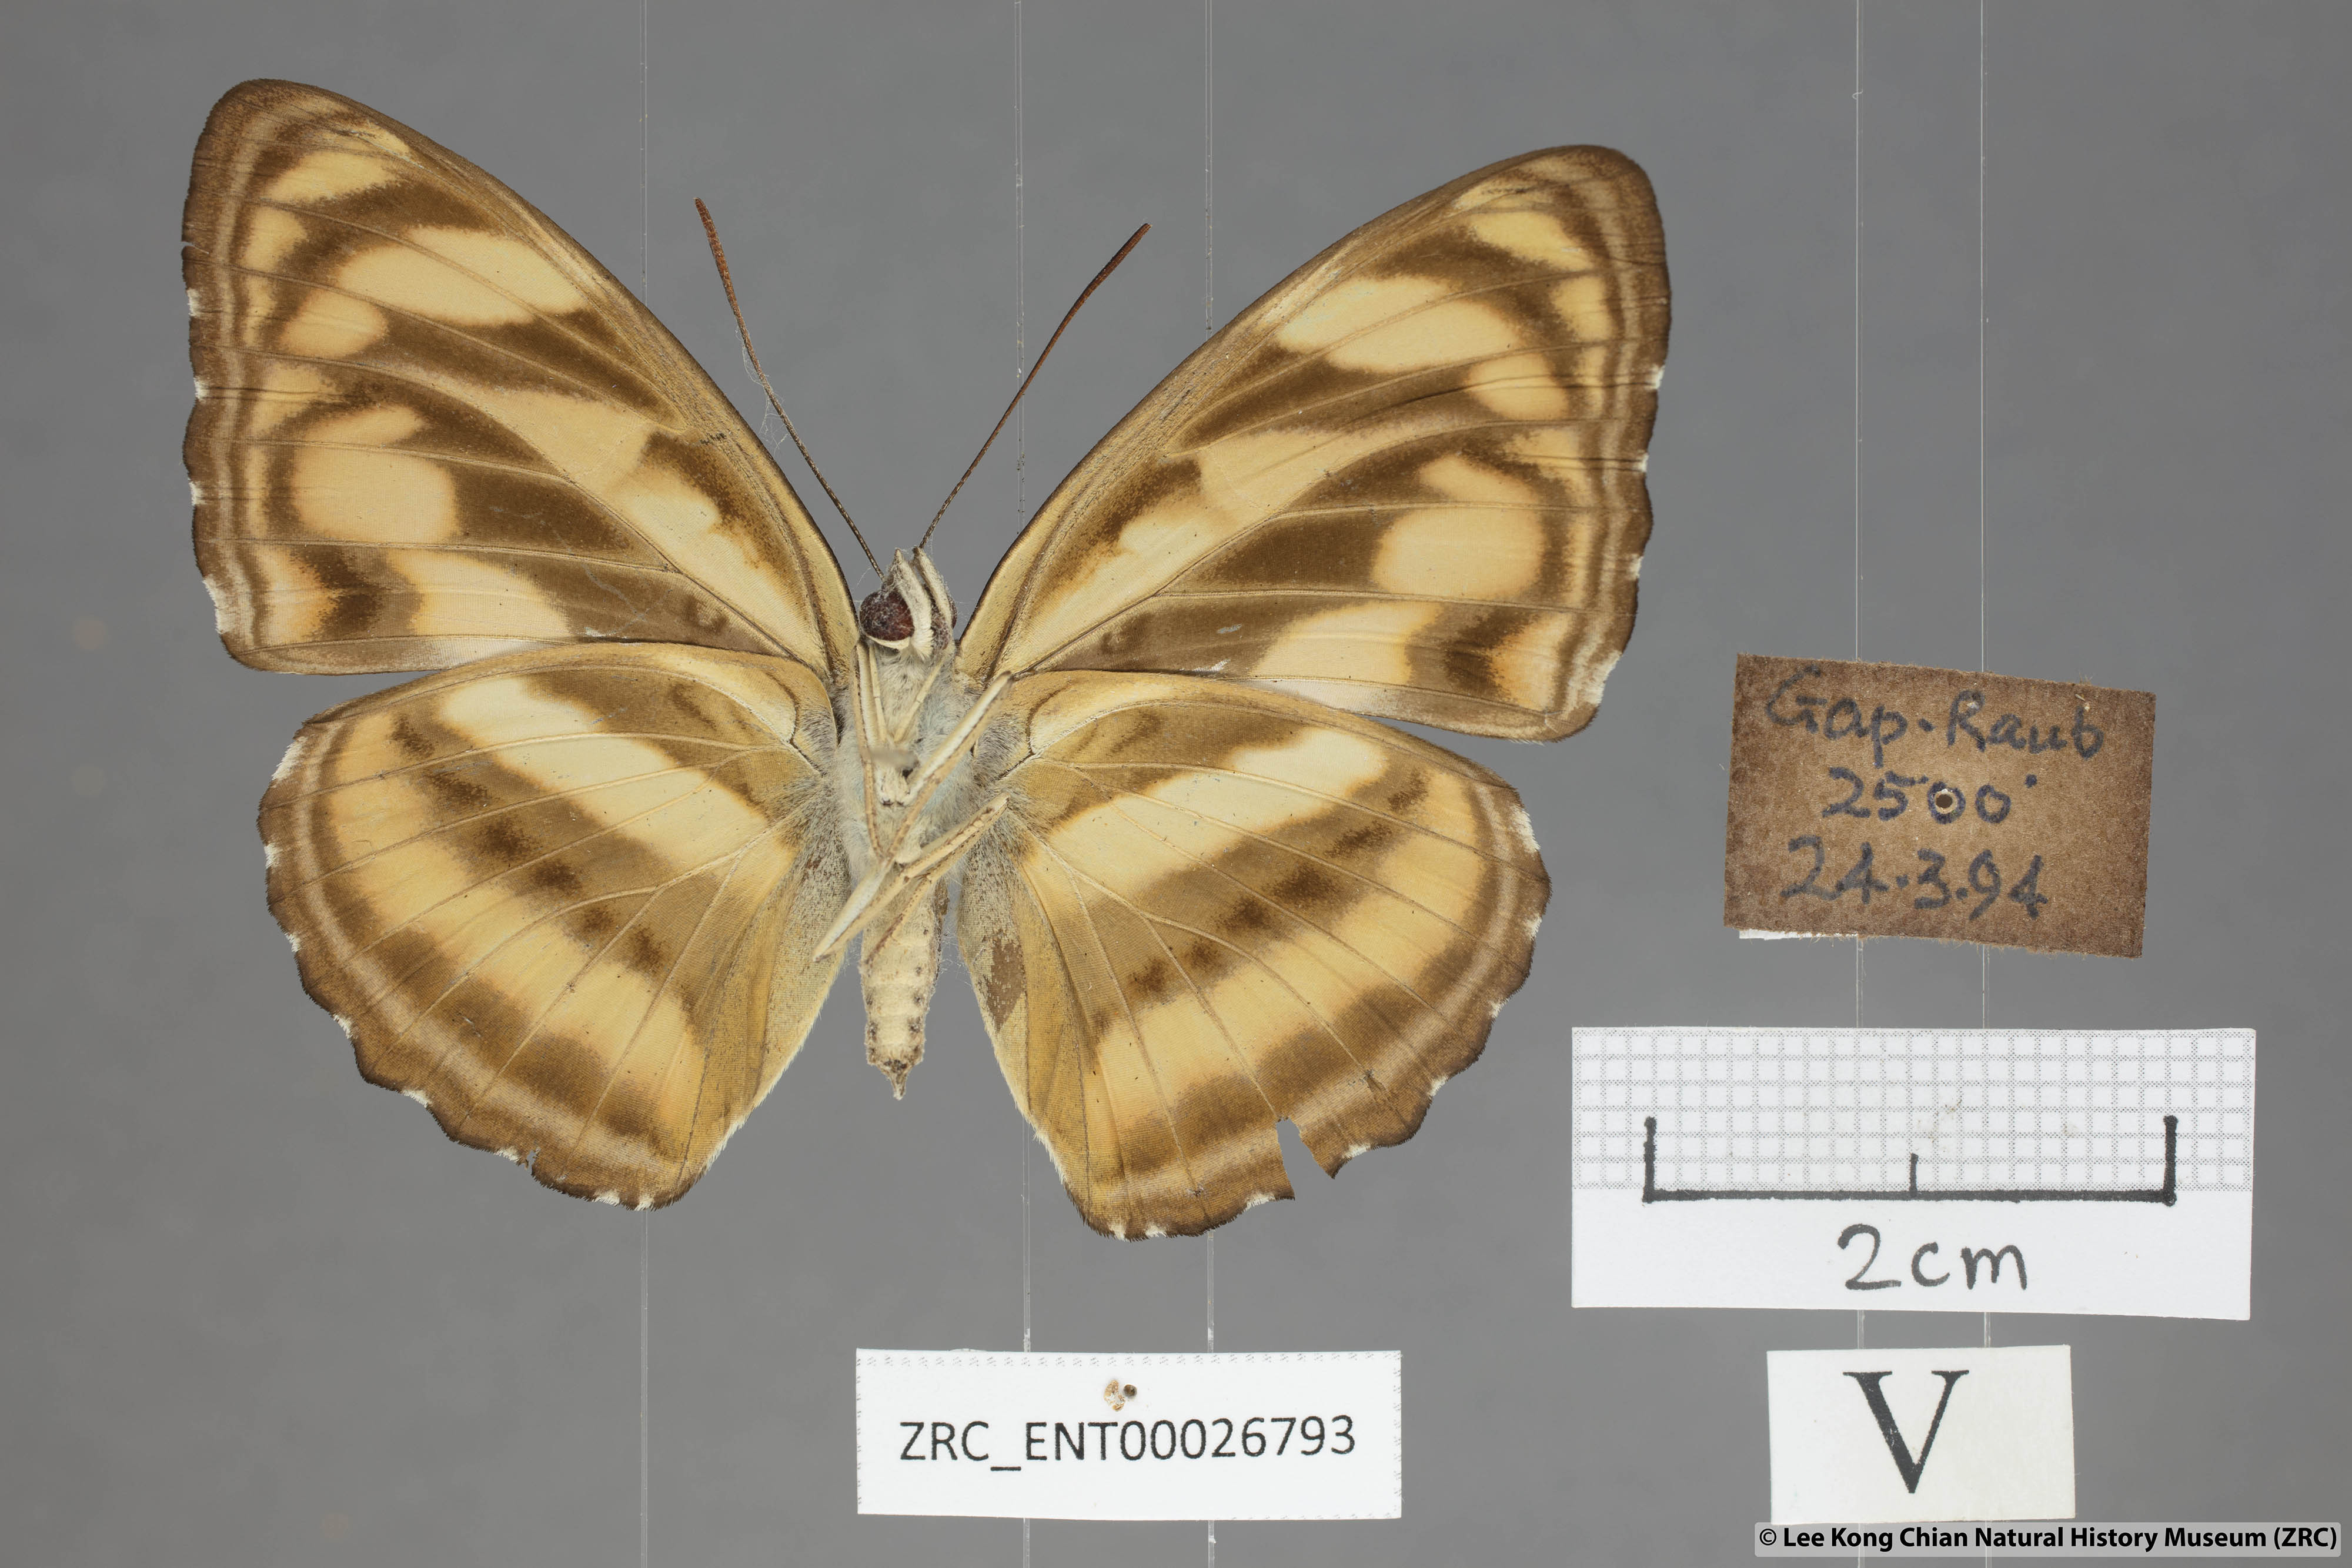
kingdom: Animalia
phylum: Arthropoda
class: Insecta
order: Lepidoptera
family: Nymphalidae
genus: Pantoporia
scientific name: Pantoporia
